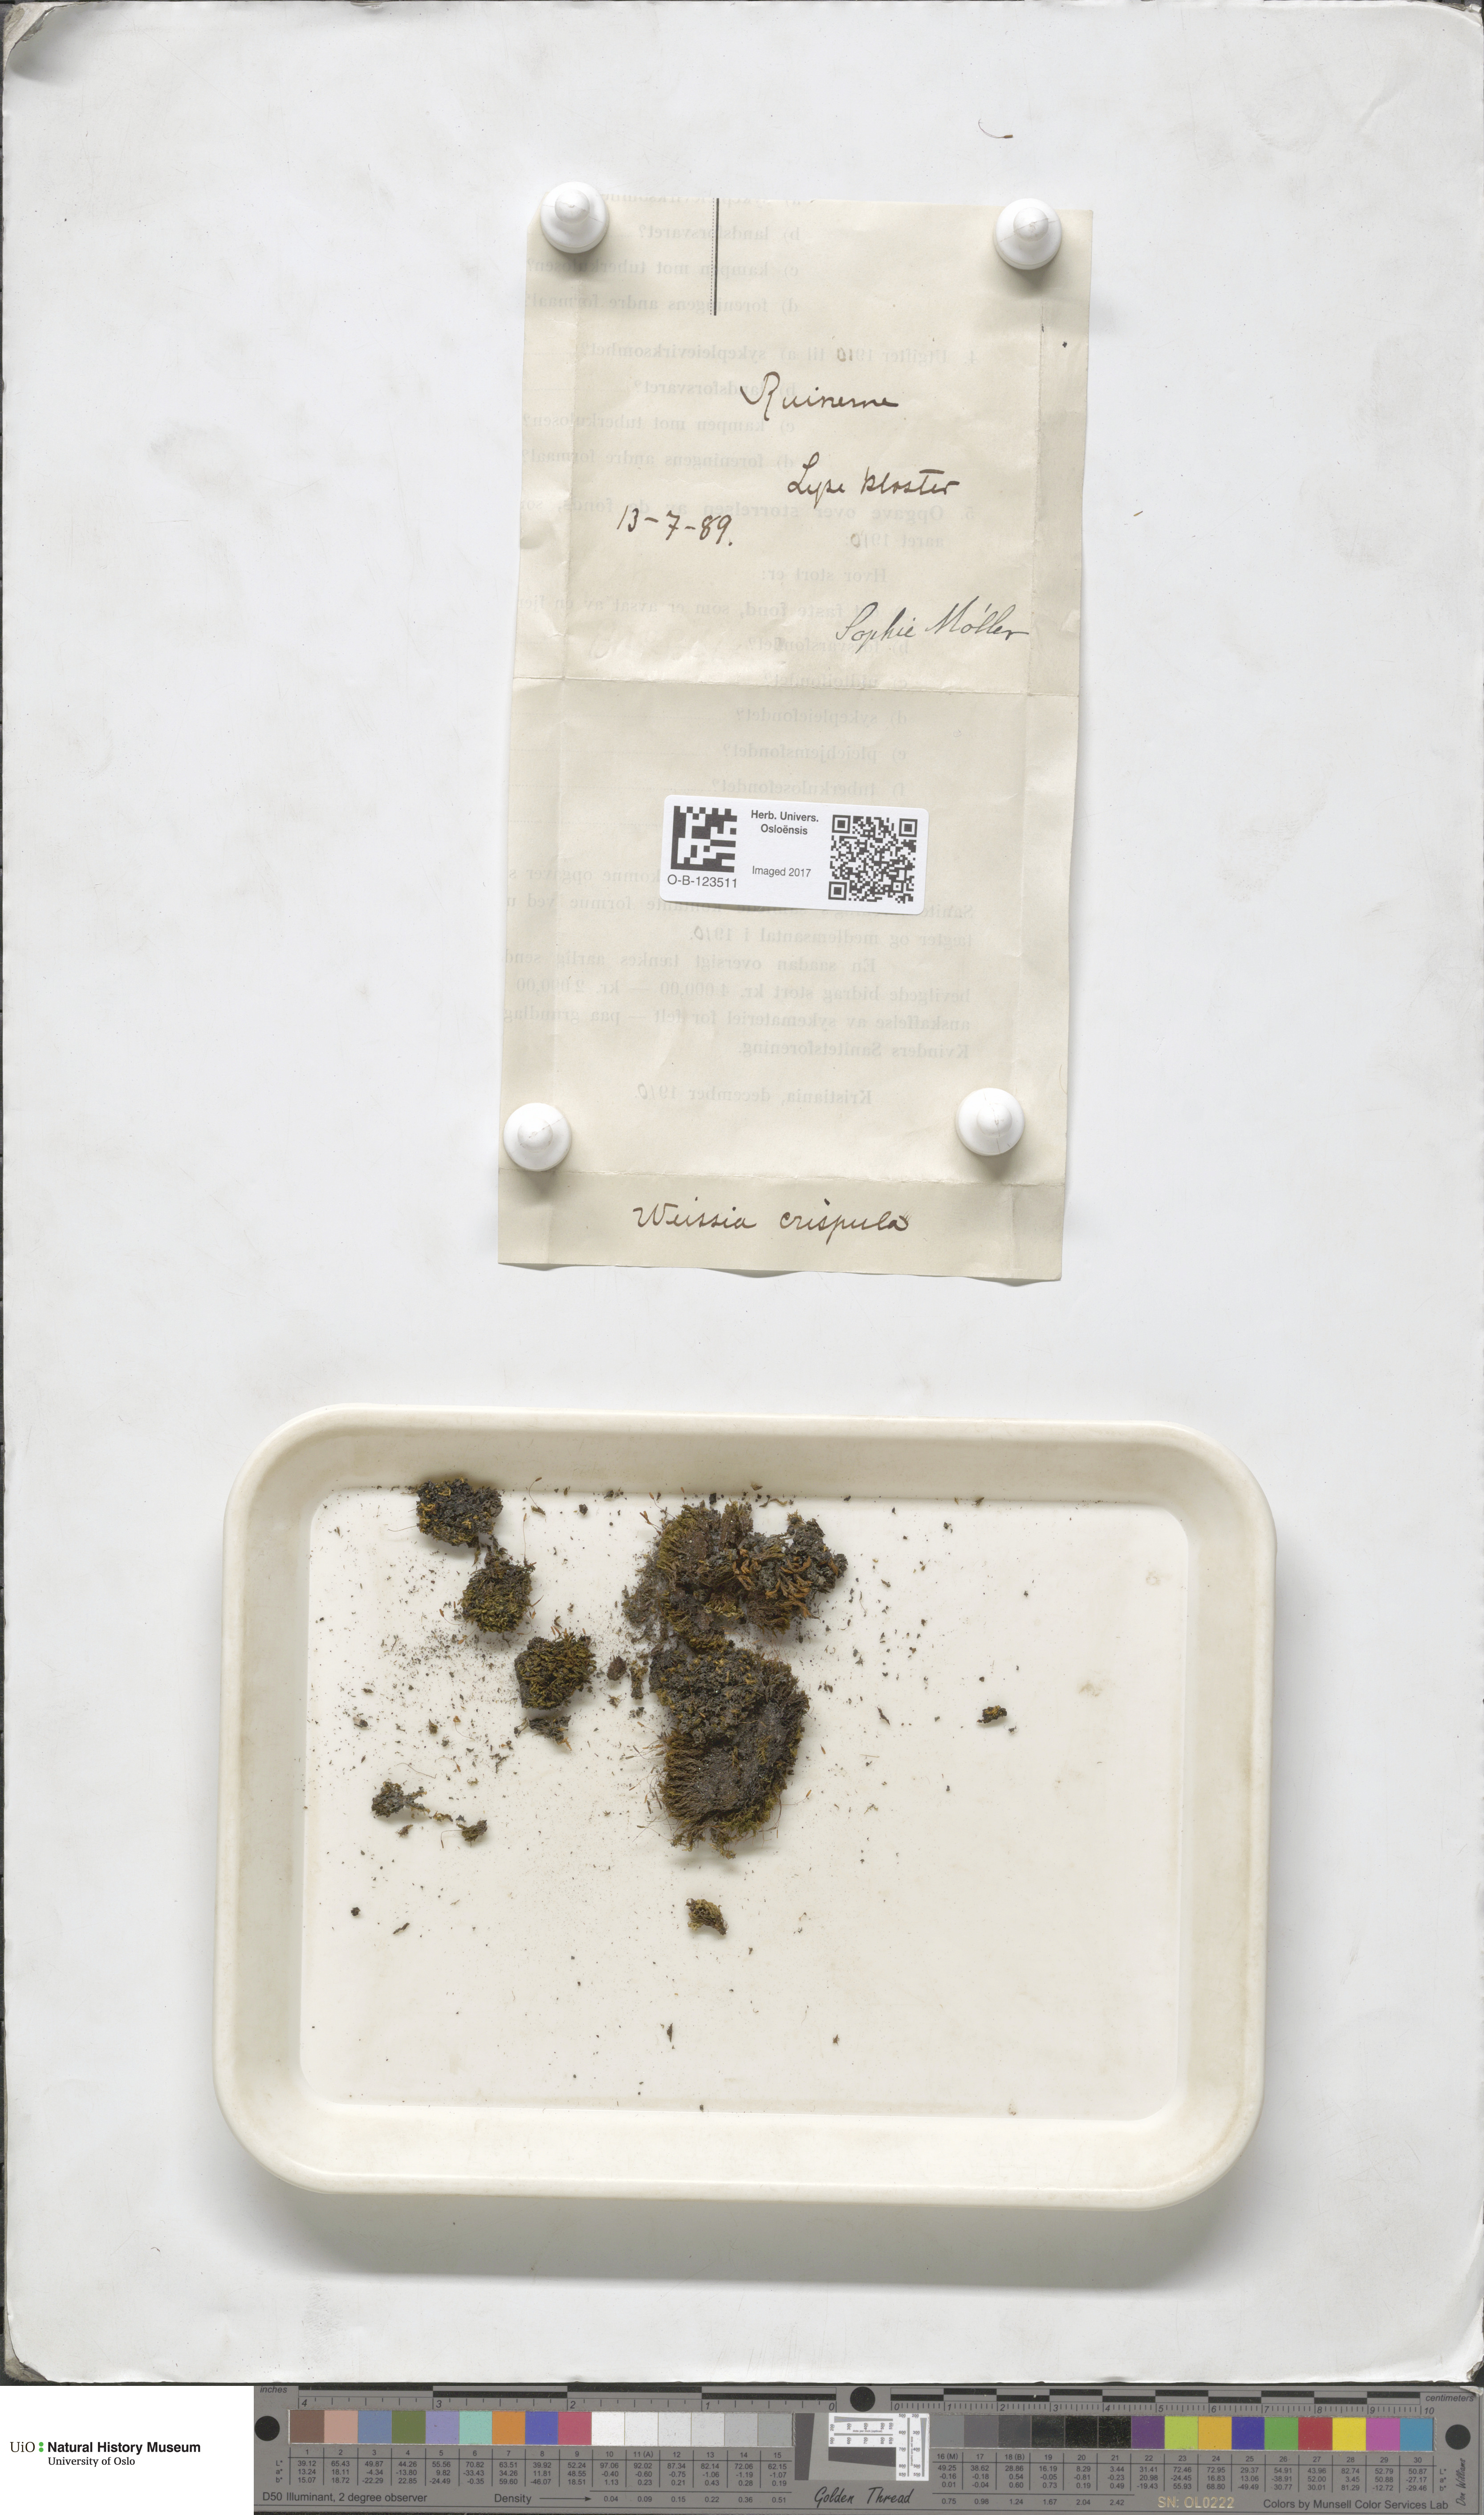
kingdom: Plantae
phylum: Bryophyta
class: Bryopsida
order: Scouleriales
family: Hymenolomataceae
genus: Hymenoloma
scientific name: Hymenoloma crispulum
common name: Mountain pincushion
